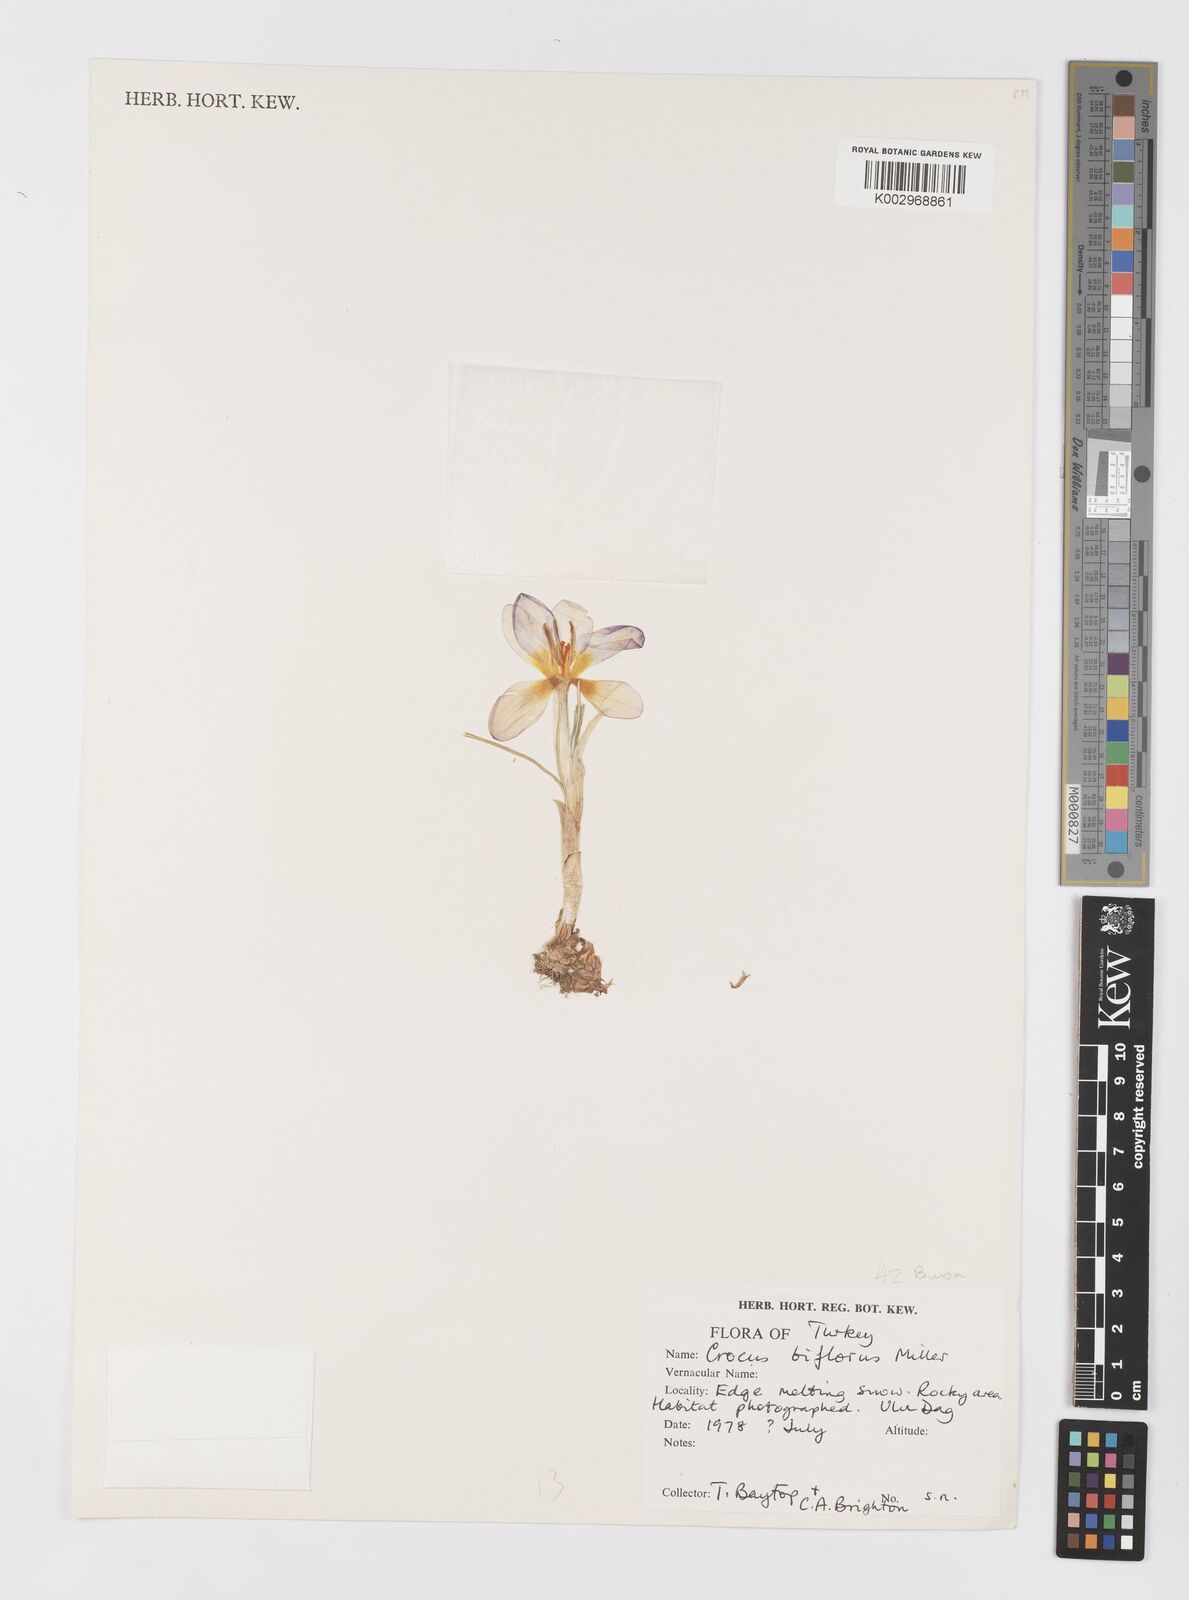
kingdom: Plantae
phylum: Tracheophyta
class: Liliopsida
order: Asparagales
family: Iridaceae
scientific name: Iridaceae
